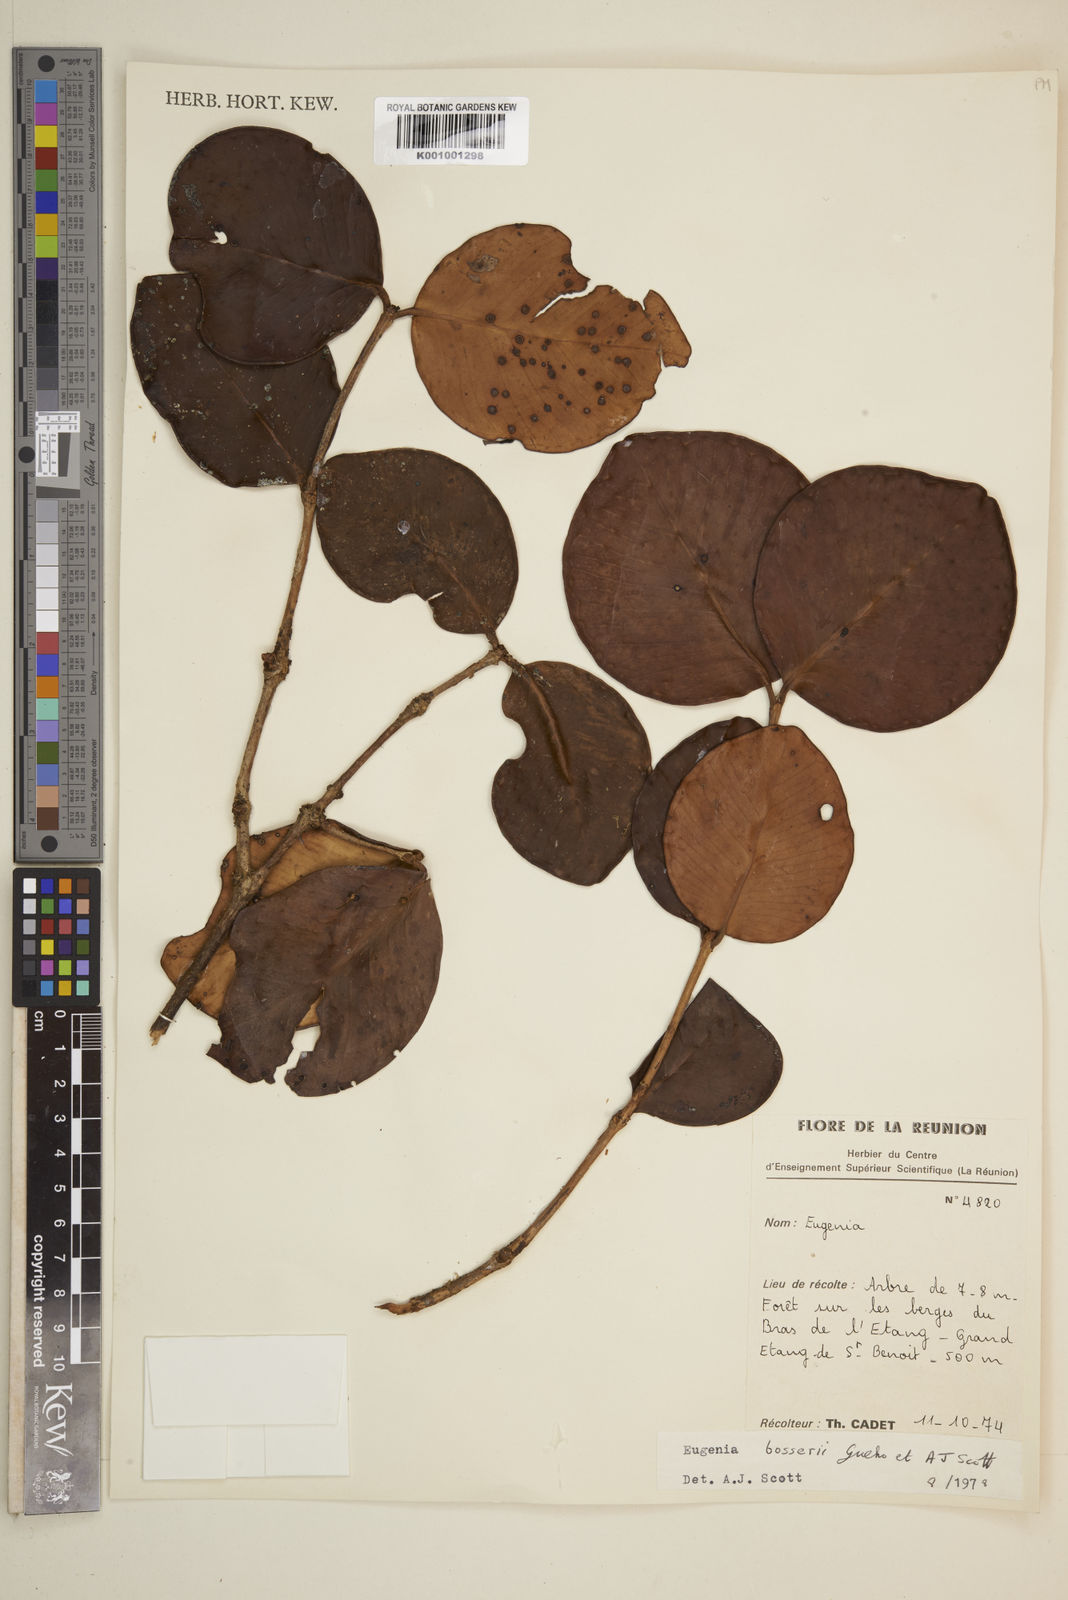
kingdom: Plantae
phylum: Tracheophyta
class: Magnoliopsida
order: Myrtales
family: Myrtaceae
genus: Eugenia
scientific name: Eugenia
